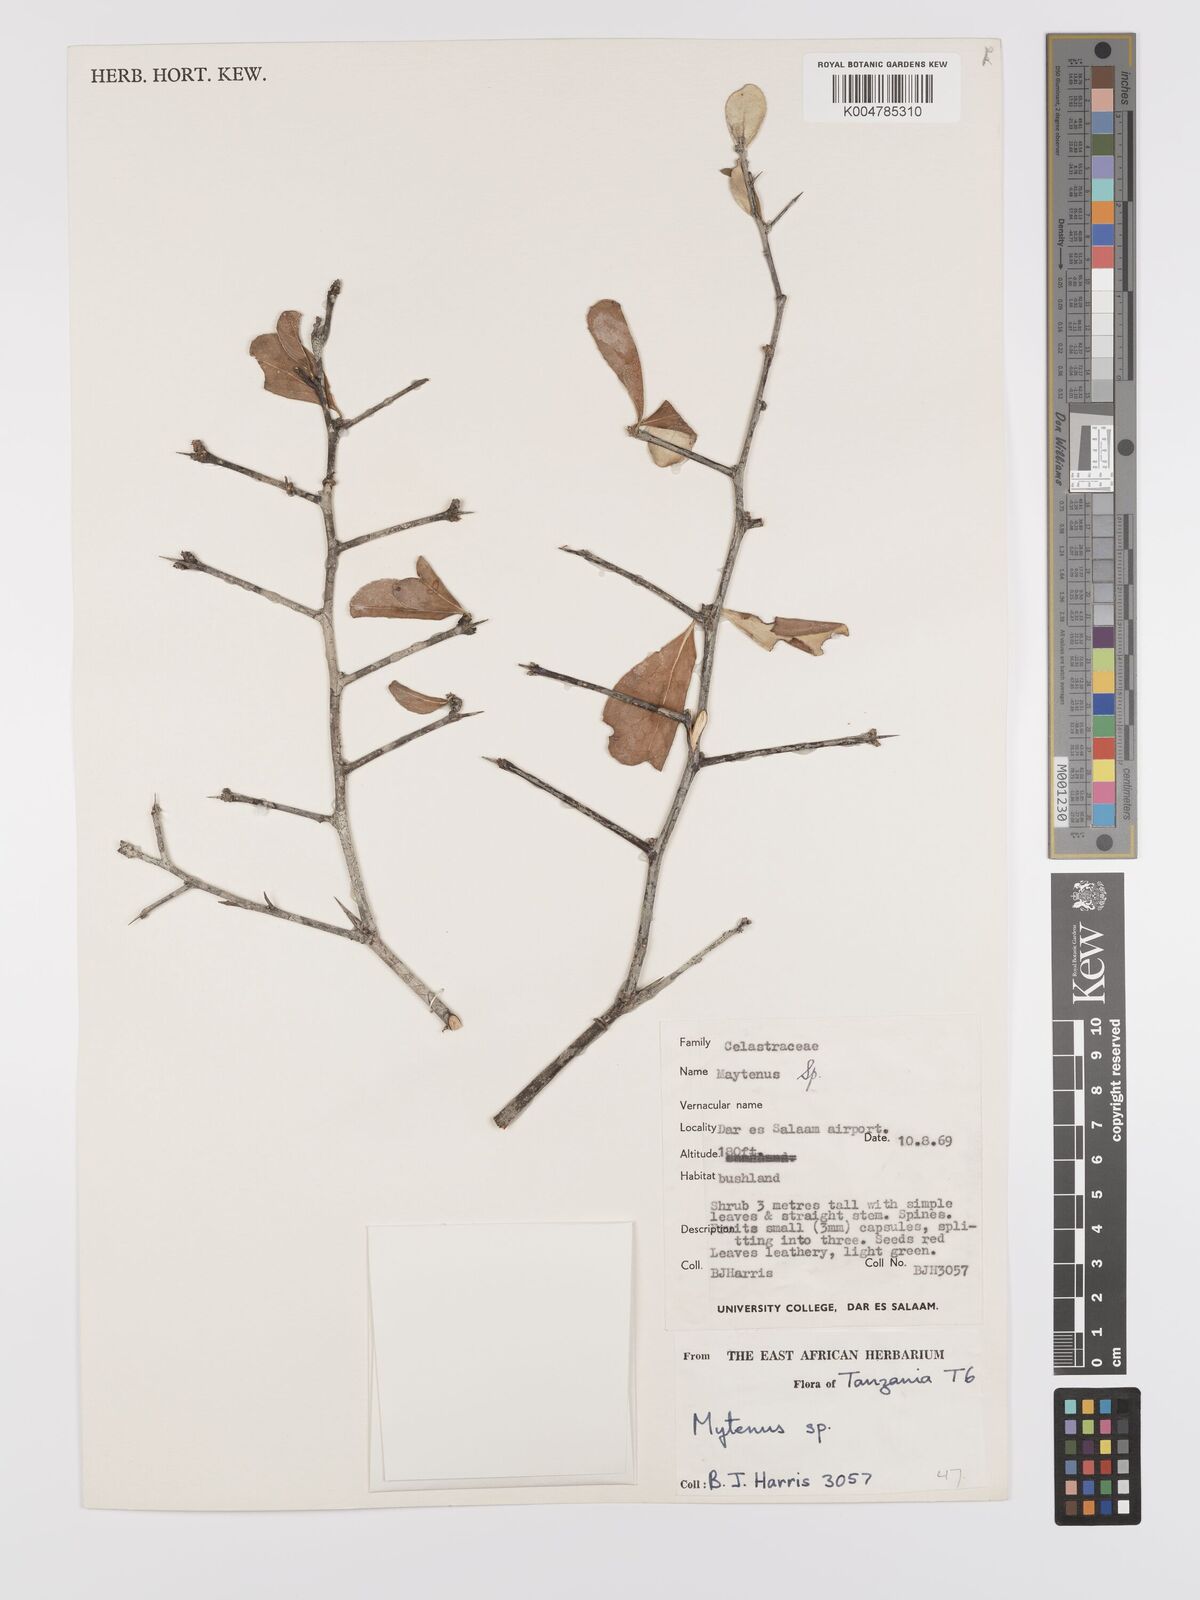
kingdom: Plantae
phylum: Tracheophyta
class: Magnoliopsida
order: Celastrales
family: Celastraceae
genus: Gymnosporia
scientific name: Gymnosporia heterophylla
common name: Angle-stem spikethorn
